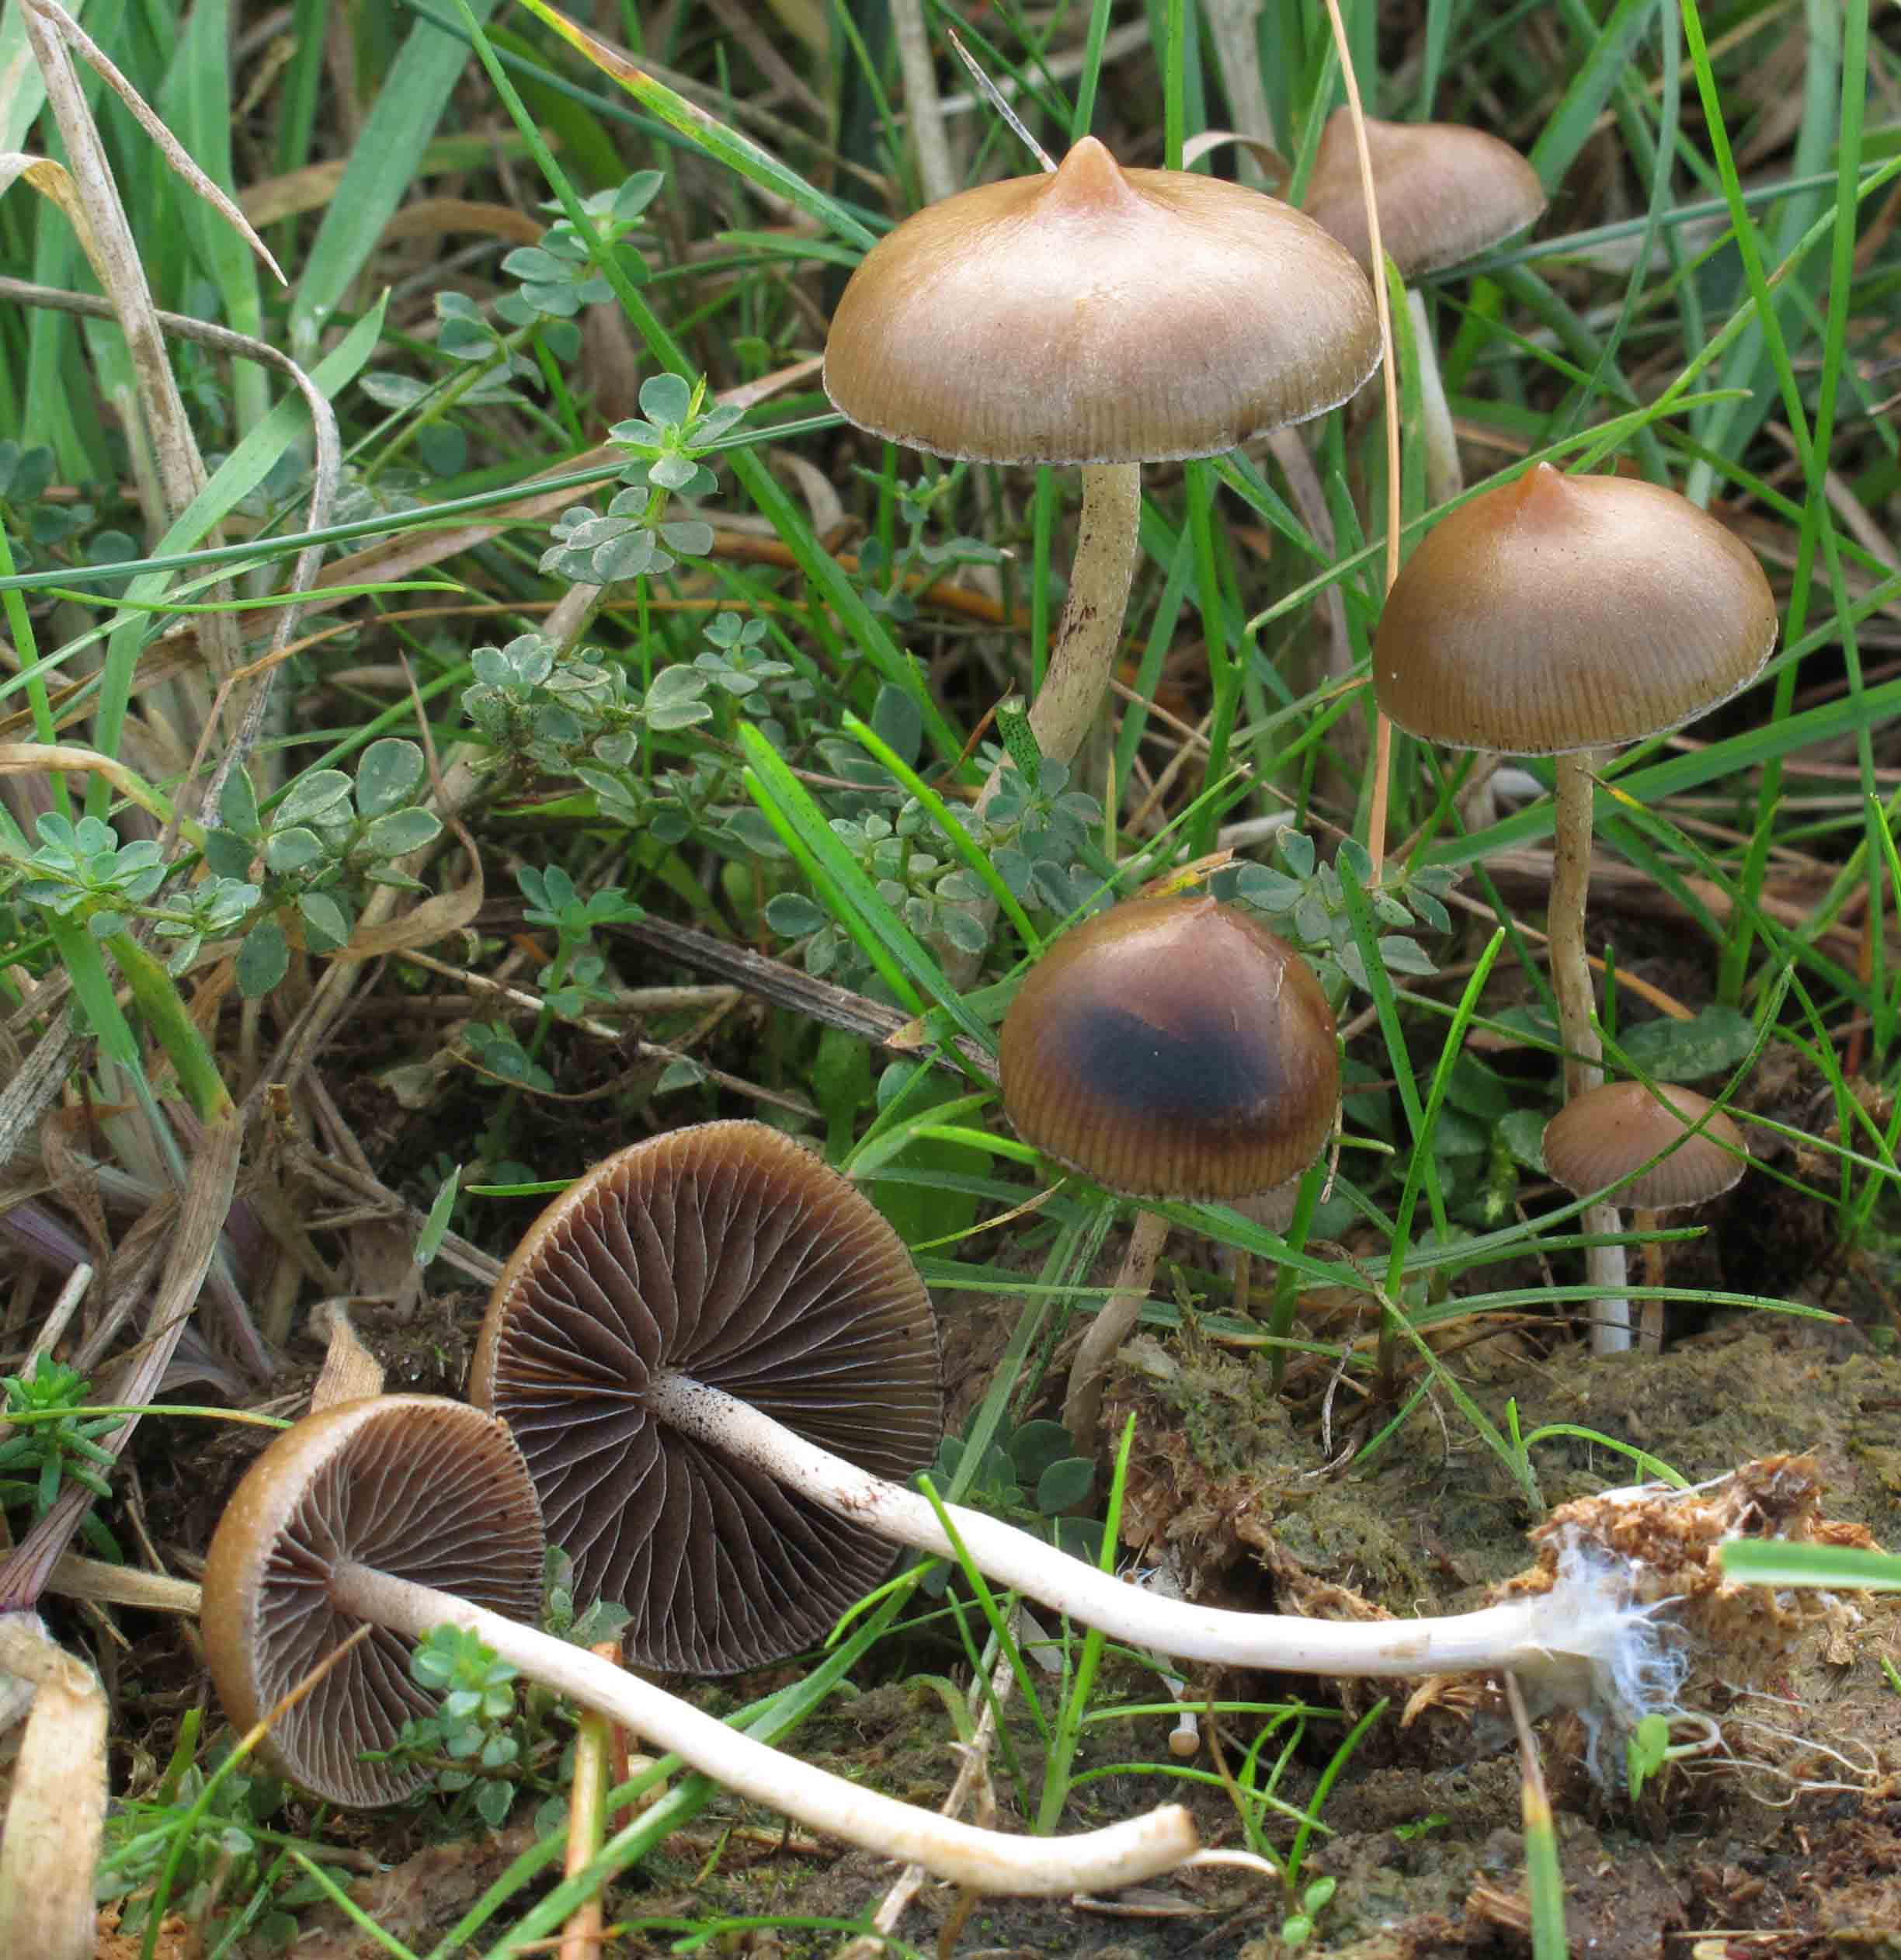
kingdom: Fungi
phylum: Basidiomycota
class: Agaricomycetes
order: Agaricales
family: Hymenogastraceae
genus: Psilocybe
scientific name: Psilocybe fimetaria
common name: prægtig nøgenhat
